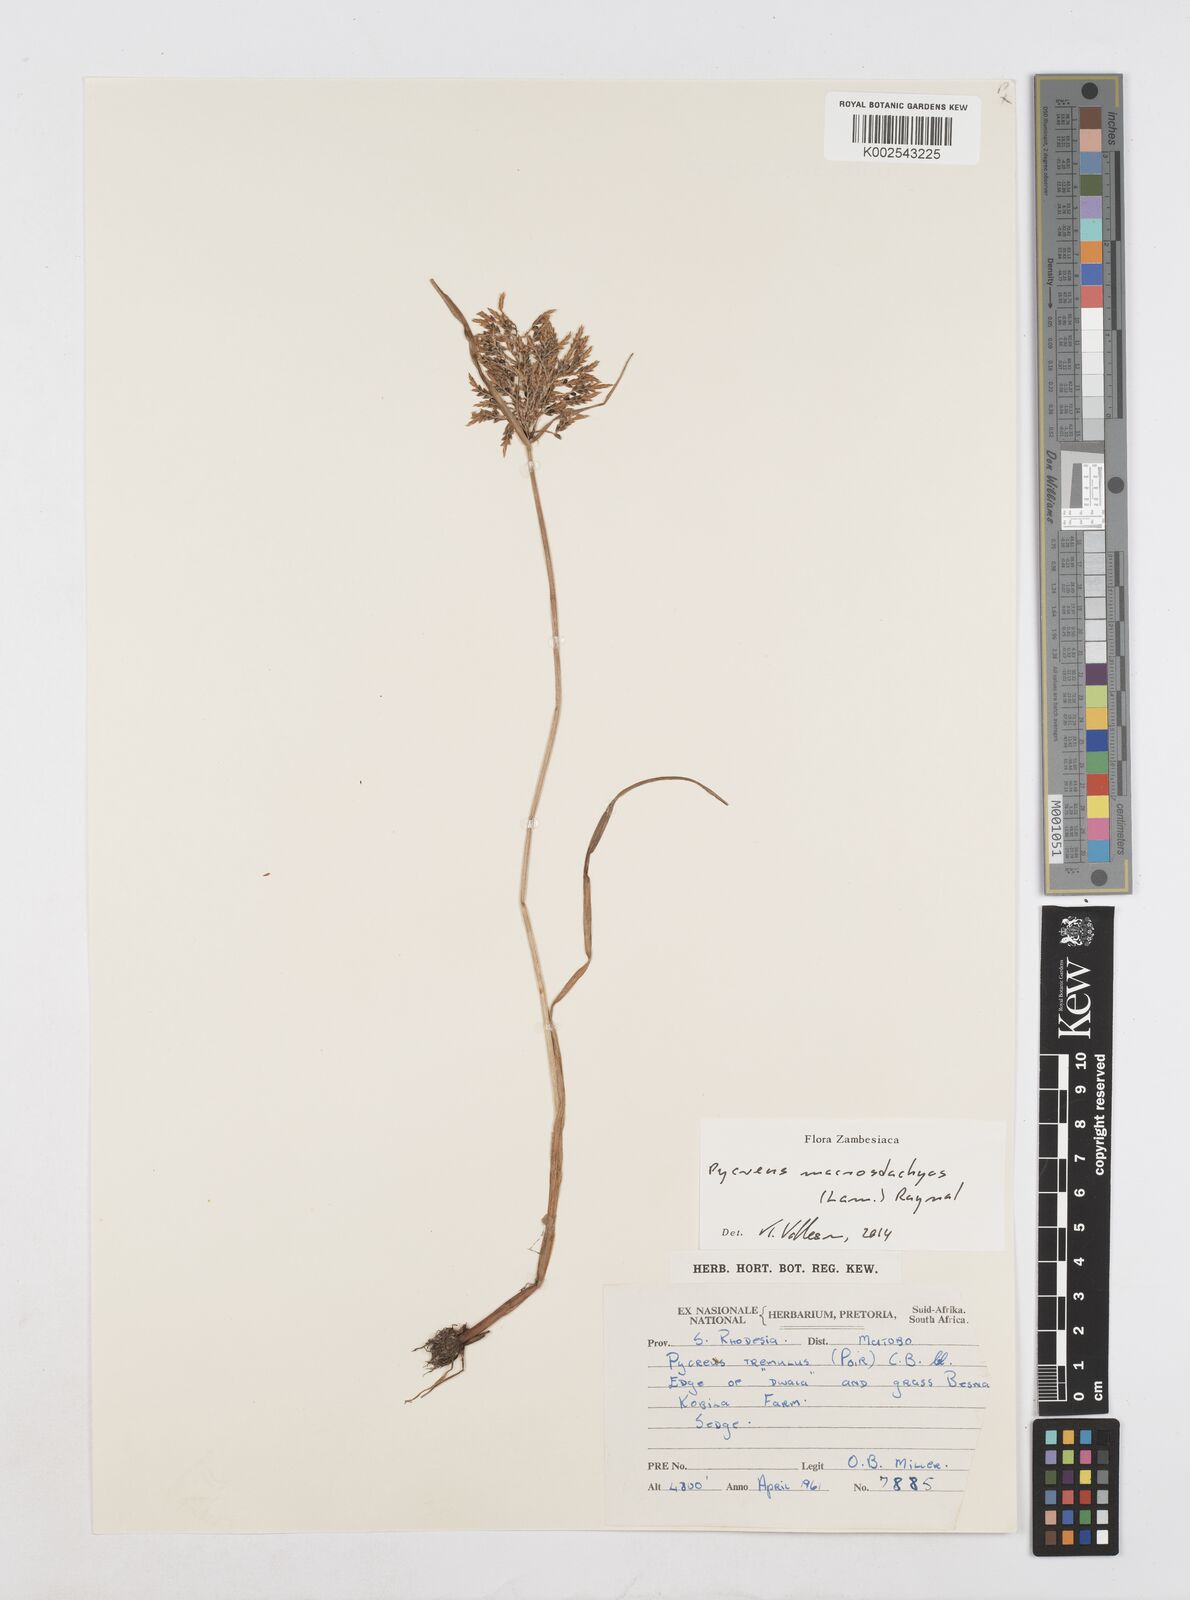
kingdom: Plantae
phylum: Tracheophyta
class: Liliopsida
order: Poales
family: Cyperaceae
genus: Cyperus
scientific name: Cyperus macrostachyos
